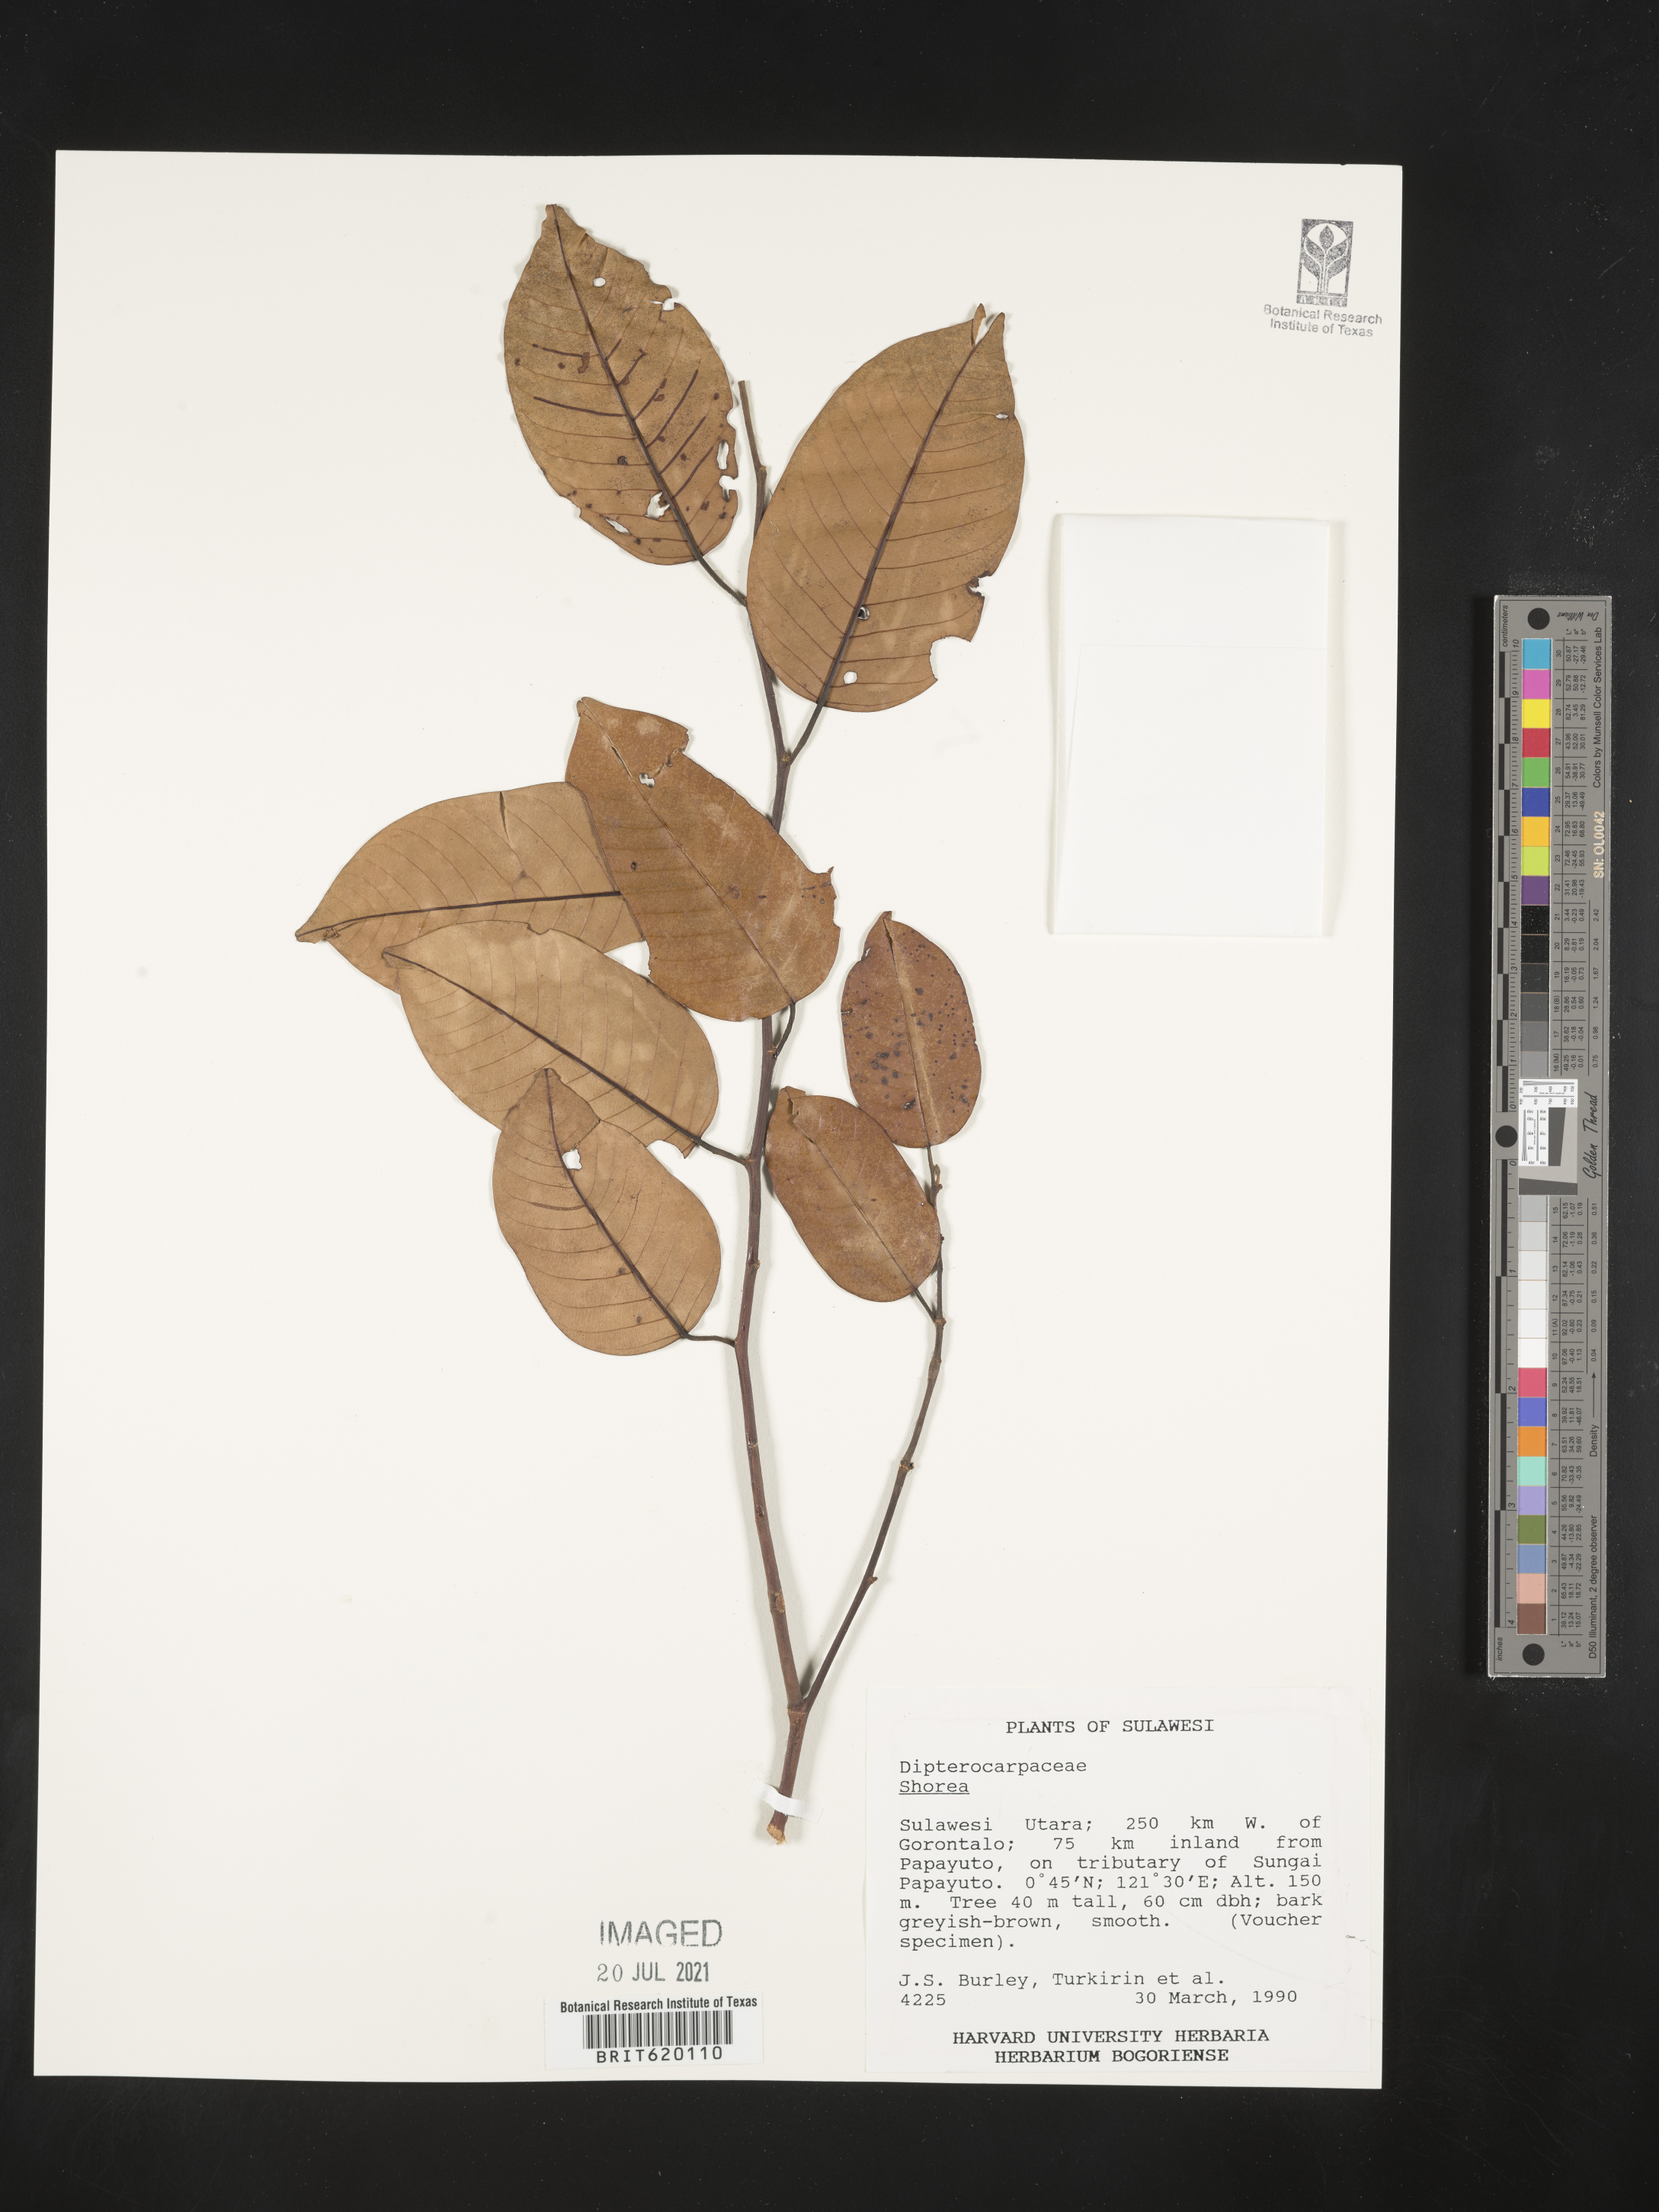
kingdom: Plantae
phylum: Tracheophyta
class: Magnoliopsida
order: Malvales
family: Dipterocarpaceae
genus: Shorea
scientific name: Shorea
